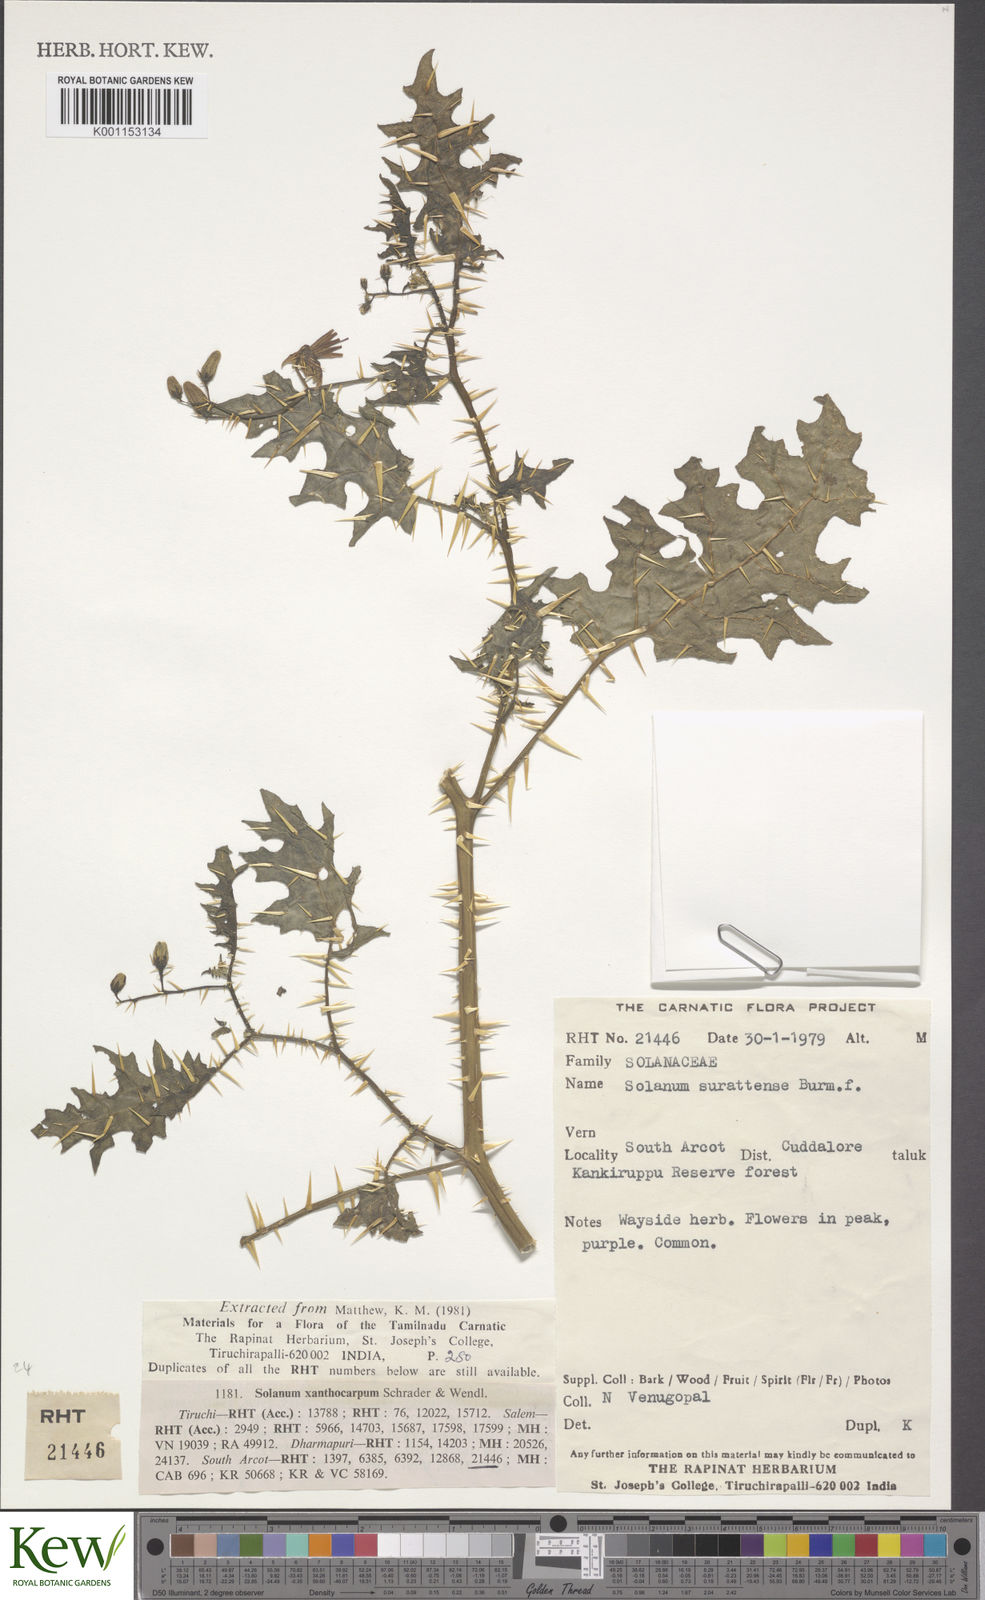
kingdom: Plantae
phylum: Tracheophyta
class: Magnoliopsida
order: Solanales
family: Solanaceae
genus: Solanum
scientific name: Solanum virginianum
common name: Surattense nightshade
